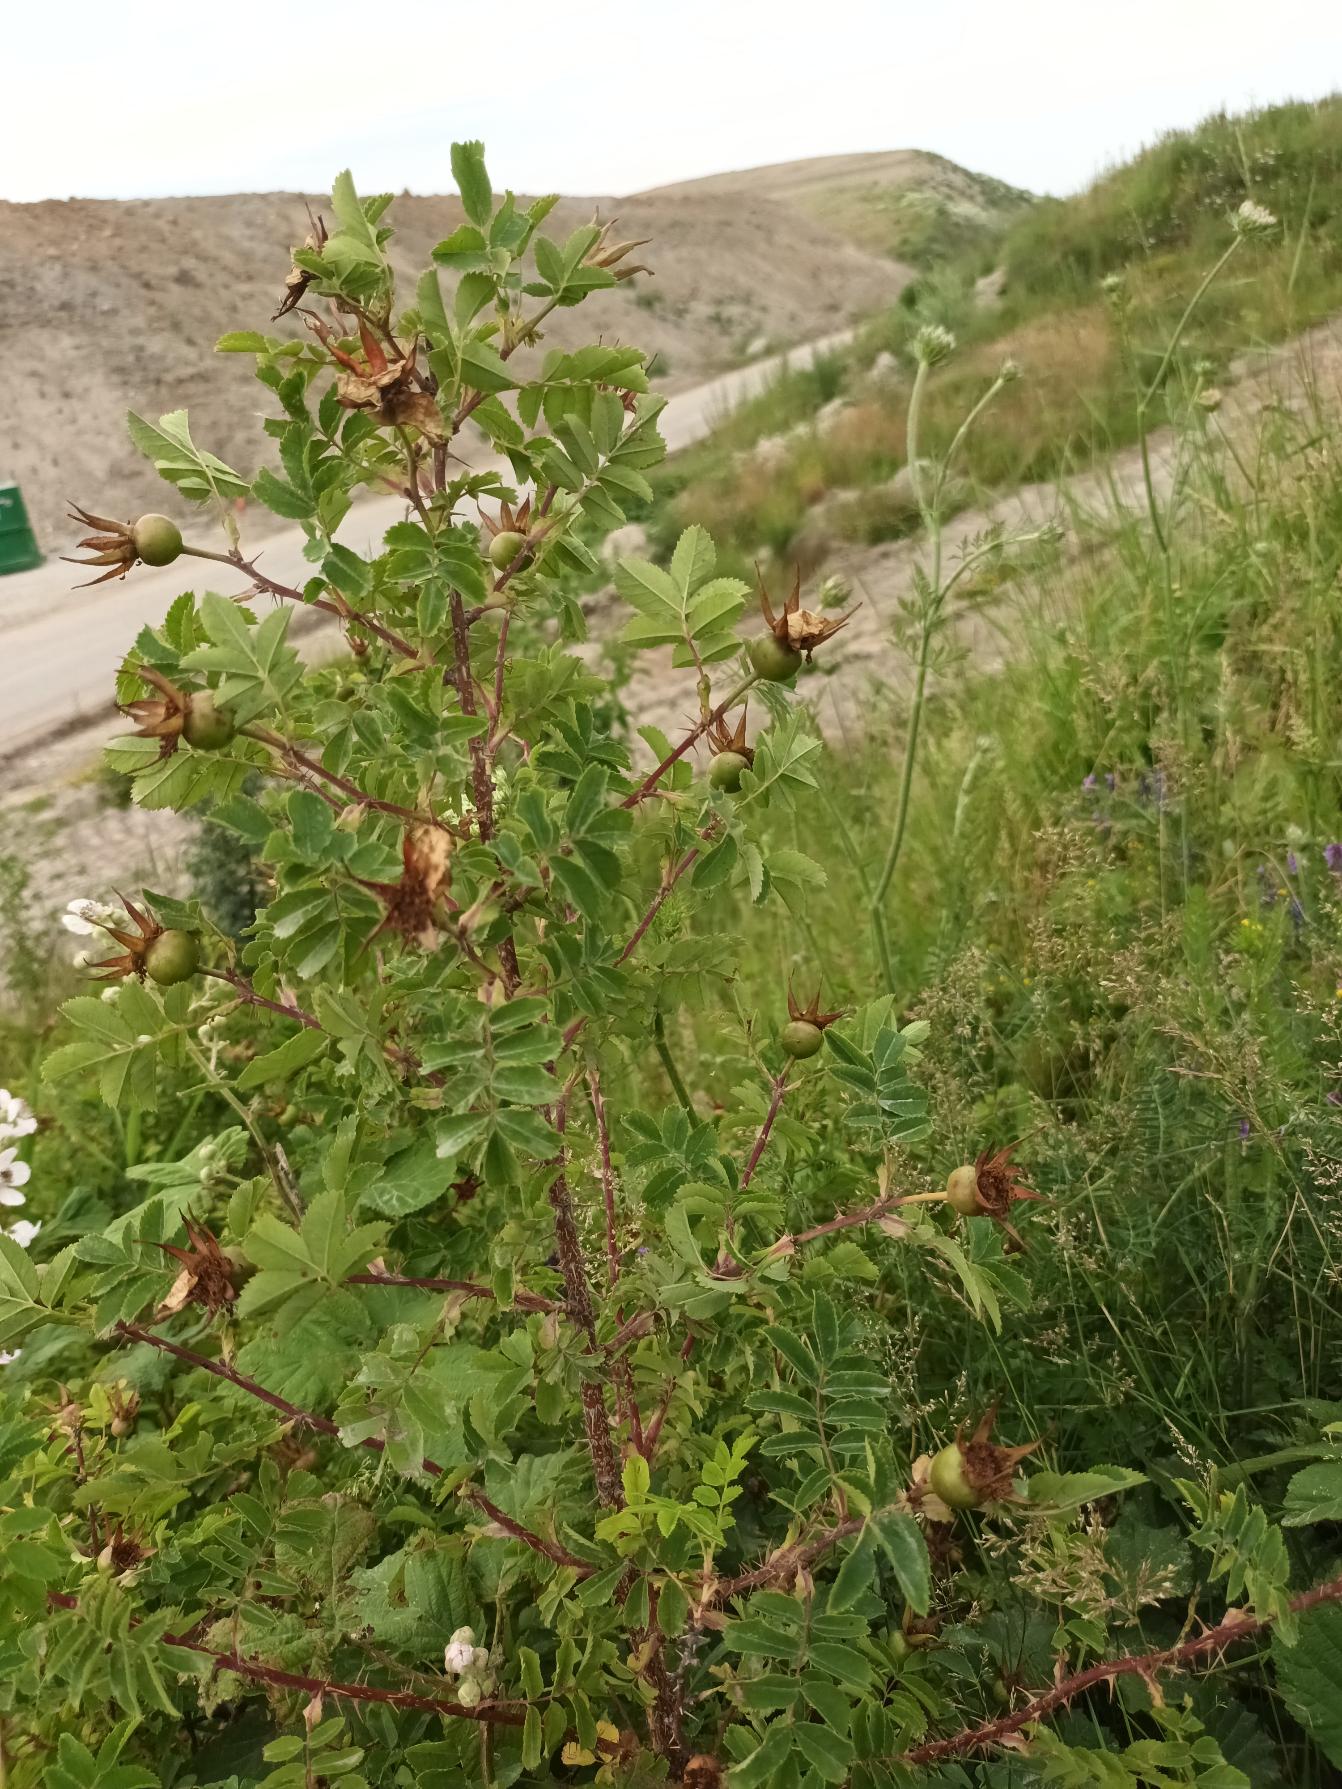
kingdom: Plantae
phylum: Tracheophyta
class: Magnoliopsida
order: Rosales
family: Rosaceae
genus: Rosa
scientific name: Rosa spinosissima
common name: Klit-rose
